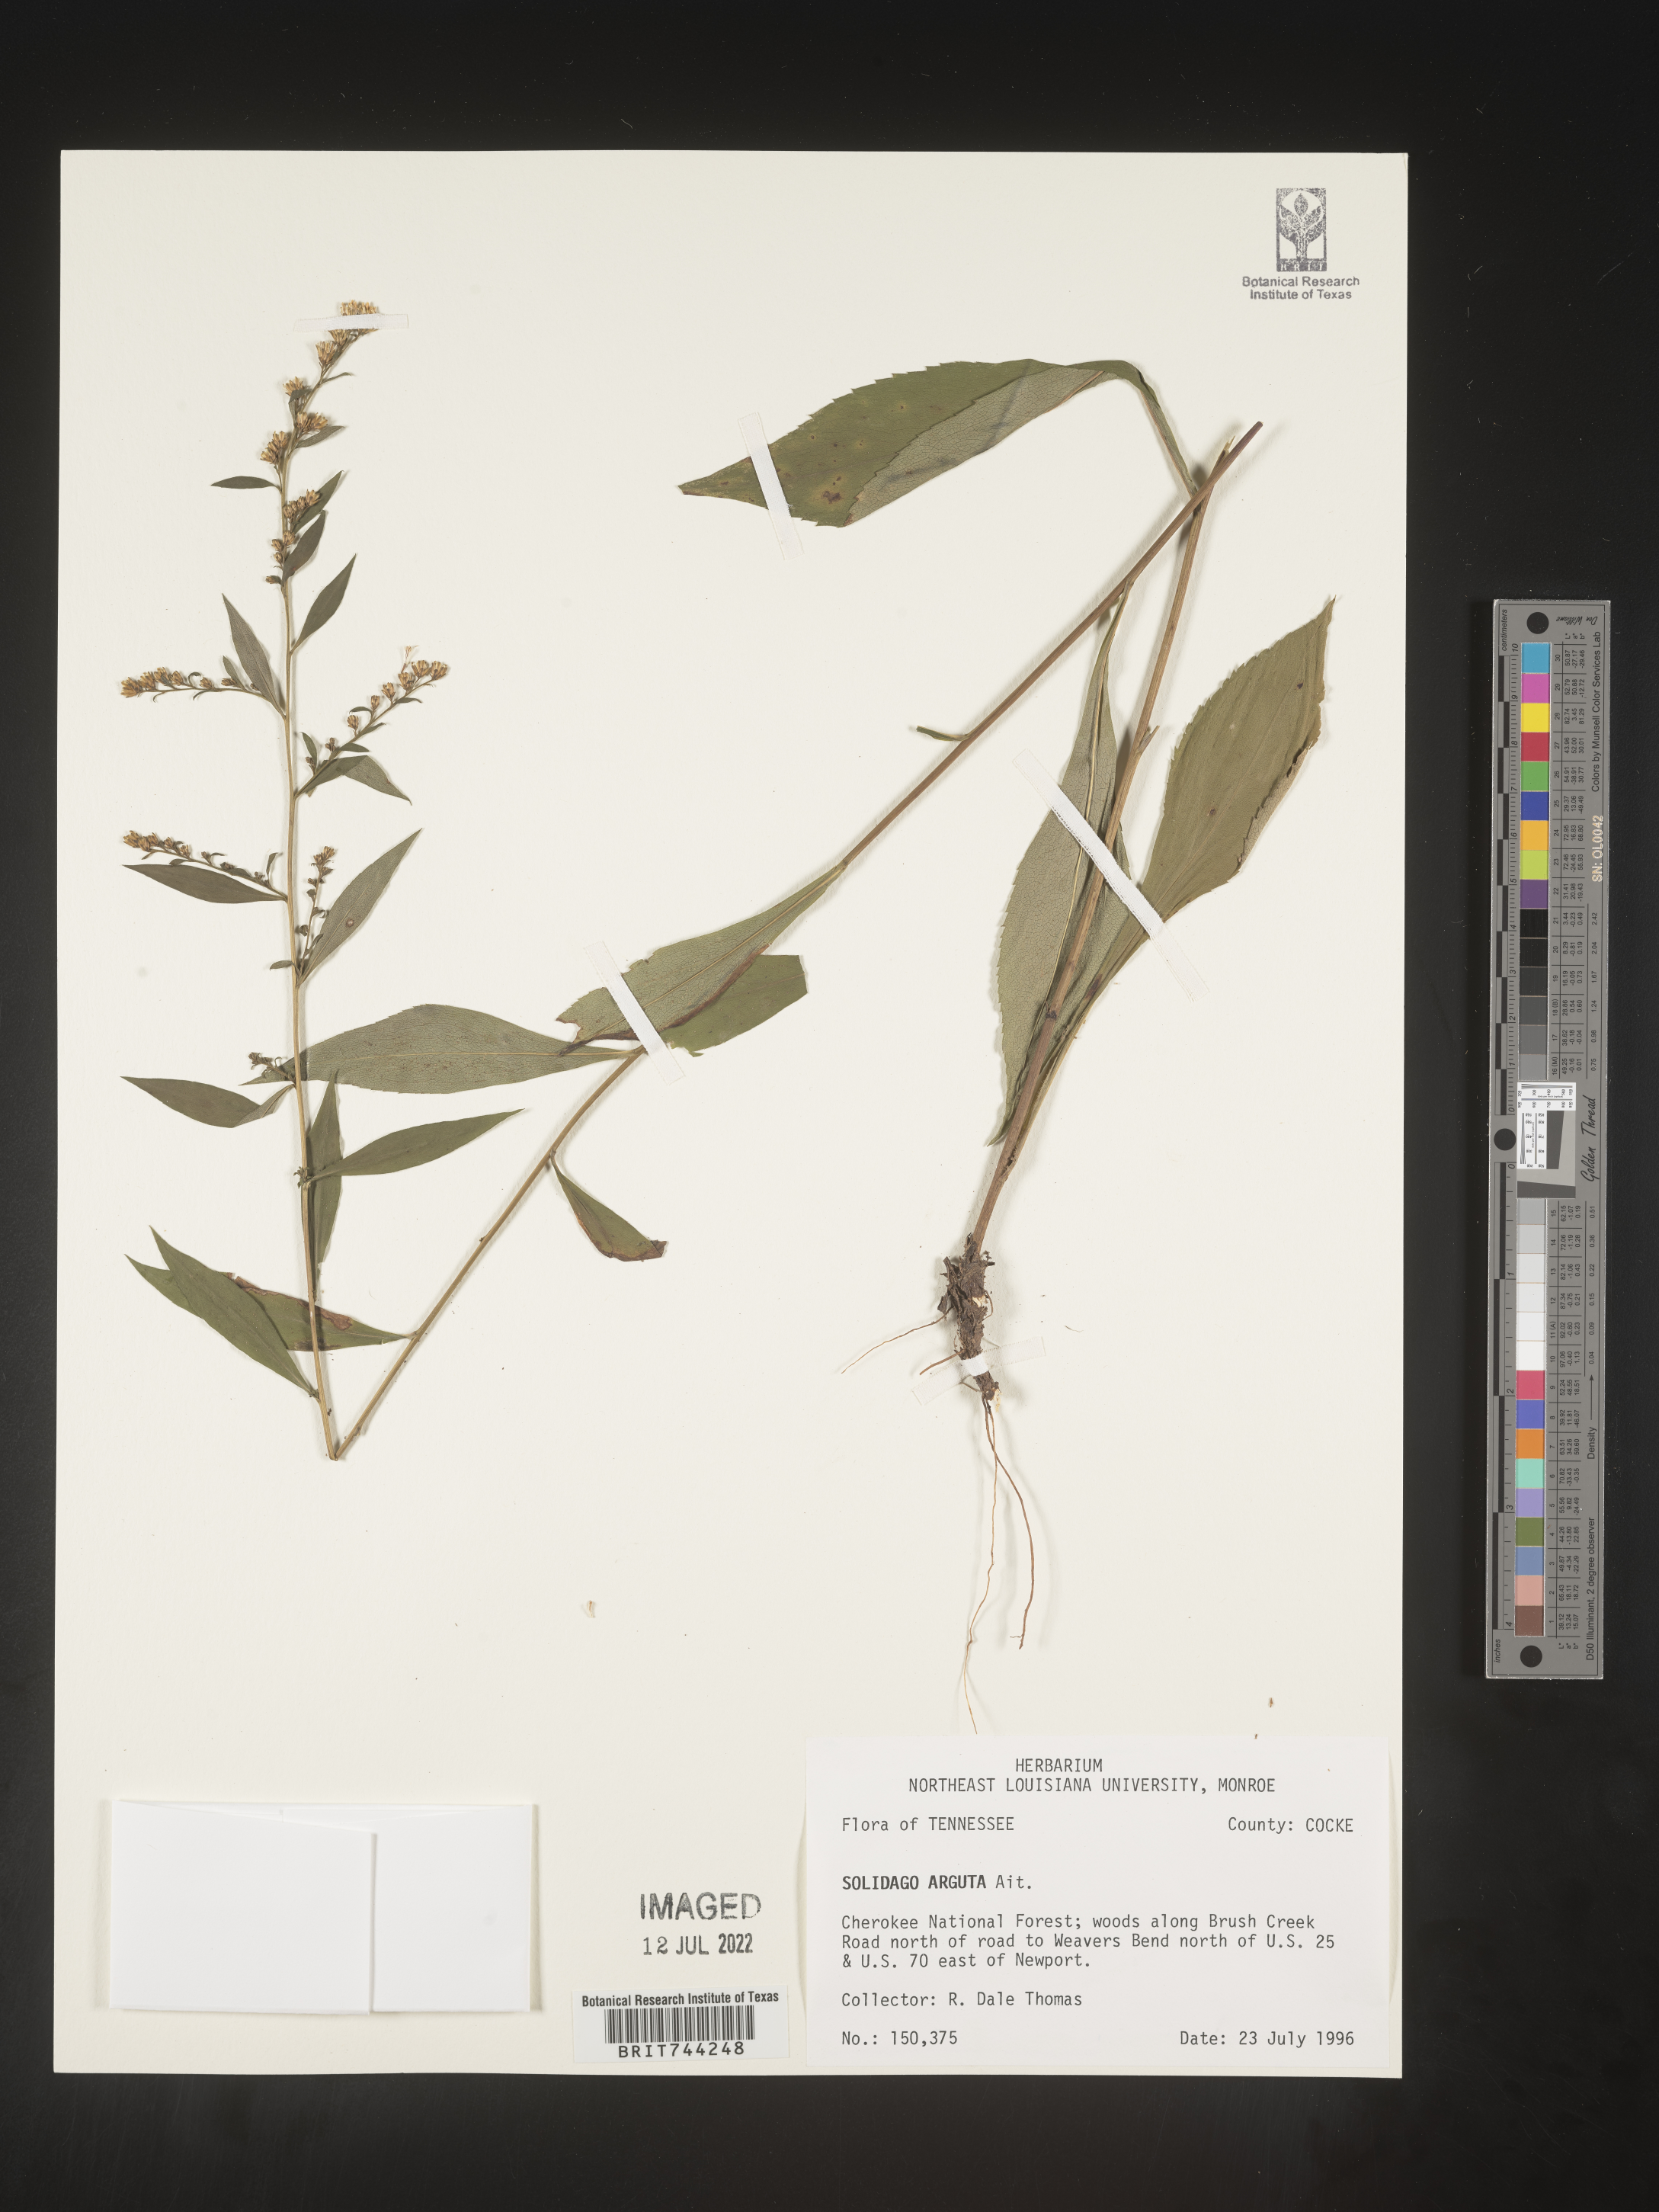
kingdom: Plantae
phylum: Tracheophyta
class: Magnoliopsida
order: Asterales
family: Asteraceae
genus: Solidago
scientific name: Solidago vaseyi
